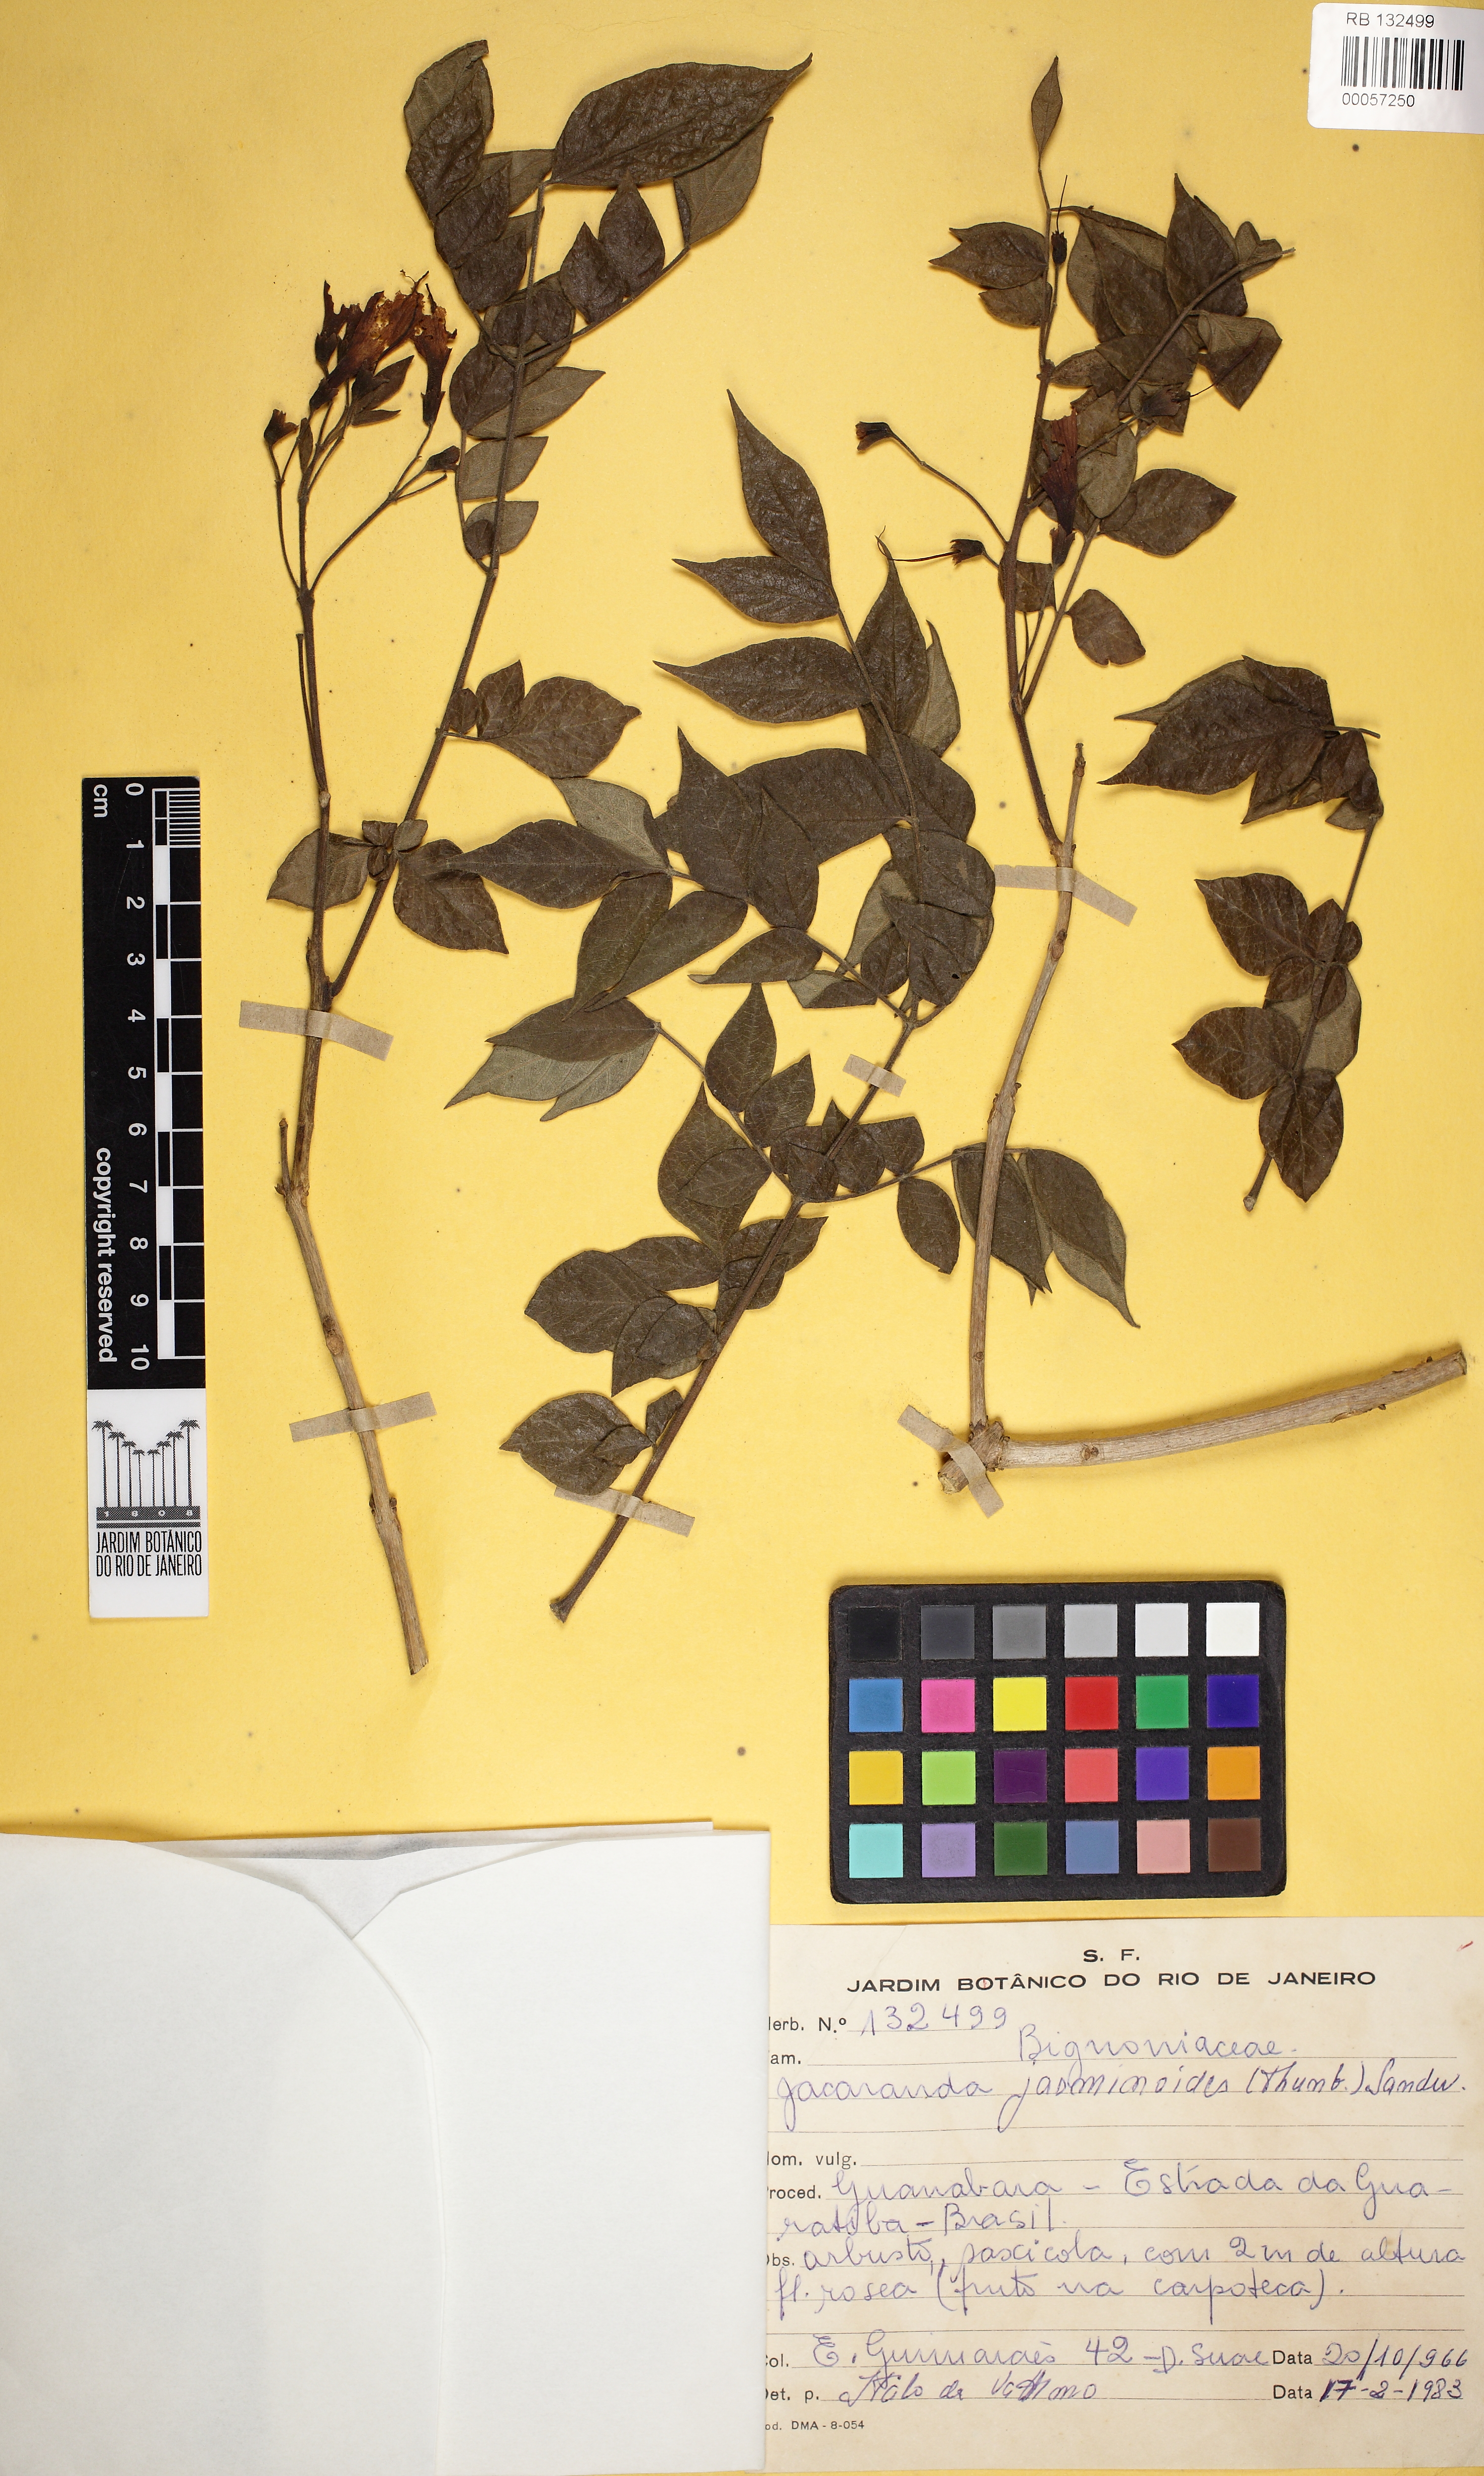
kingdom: Plantae
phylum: Tracheophyta
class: Magnoliopsida
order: Lamiales
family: Bignoniaceae
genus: Jacaranda
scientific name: Jacaranda jasminoides
